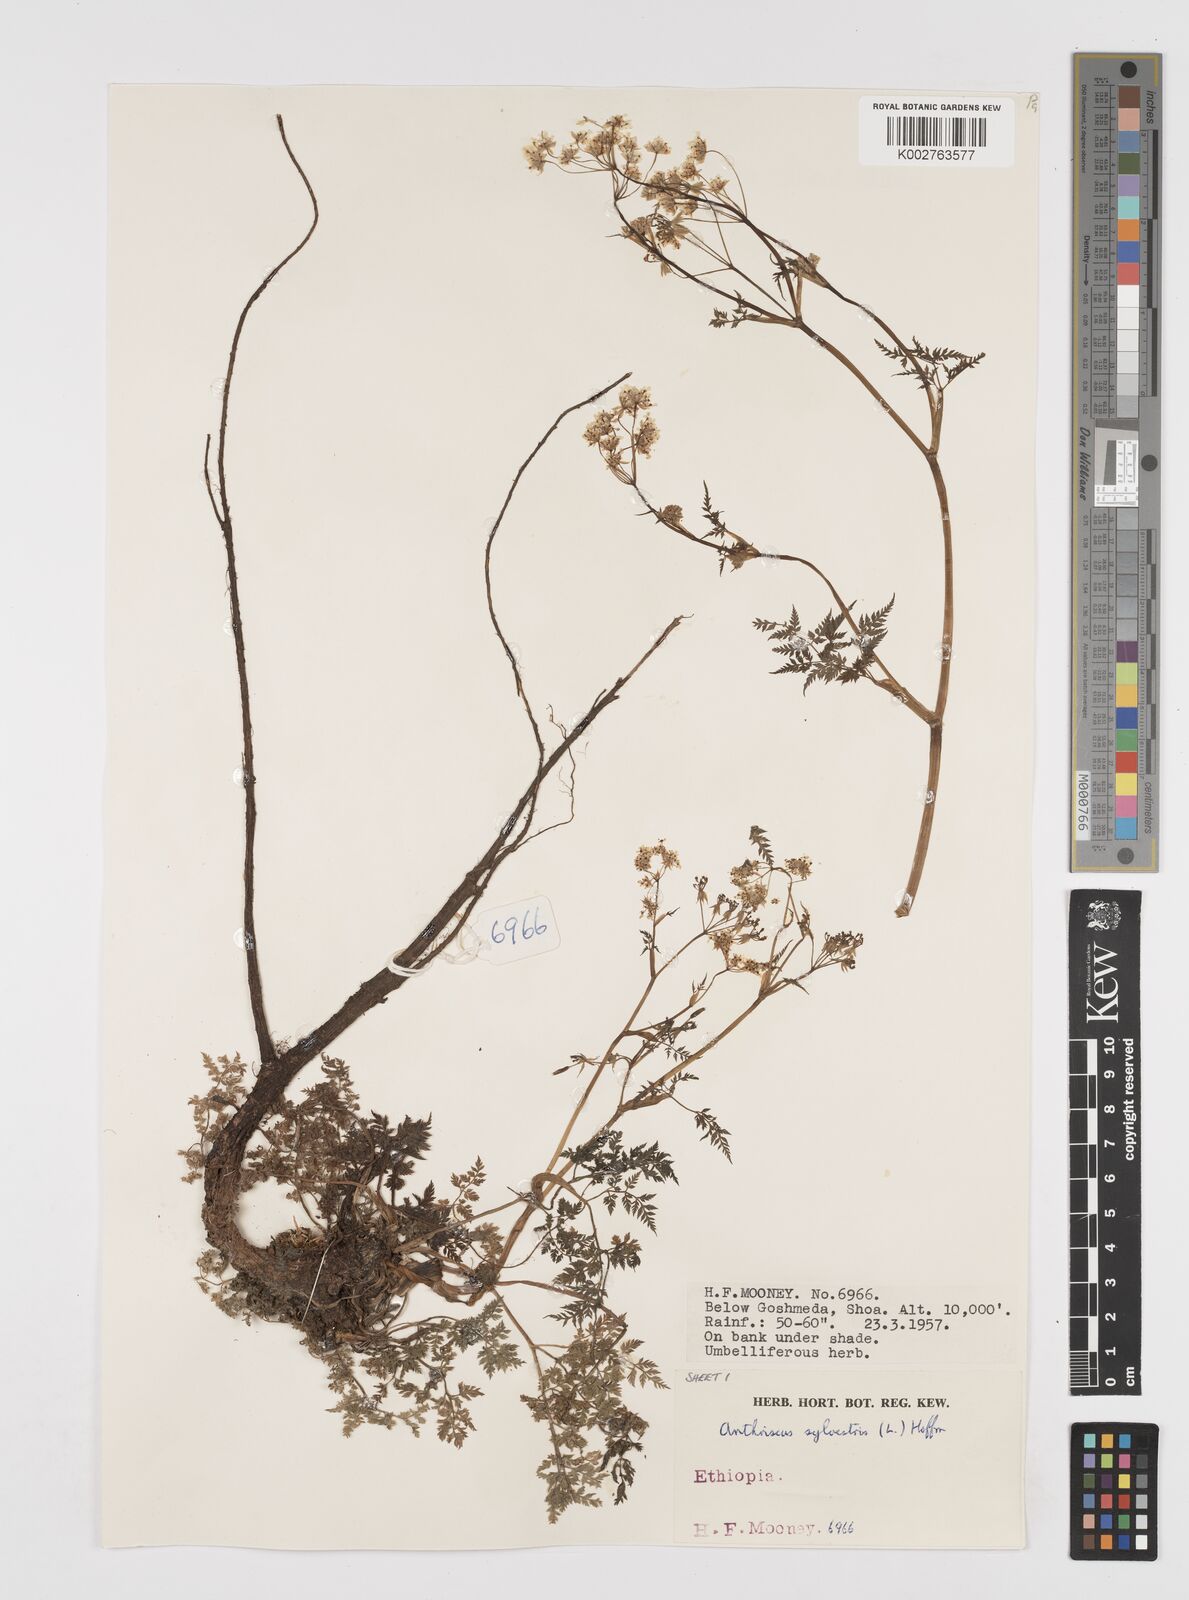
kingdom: Plantae
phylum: Tracheophyta
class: Magnoliopsida
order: Apiales
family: Apiaceae
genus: Anthriscus
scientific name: Anthriscus sylvestris
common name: Cow parsley
